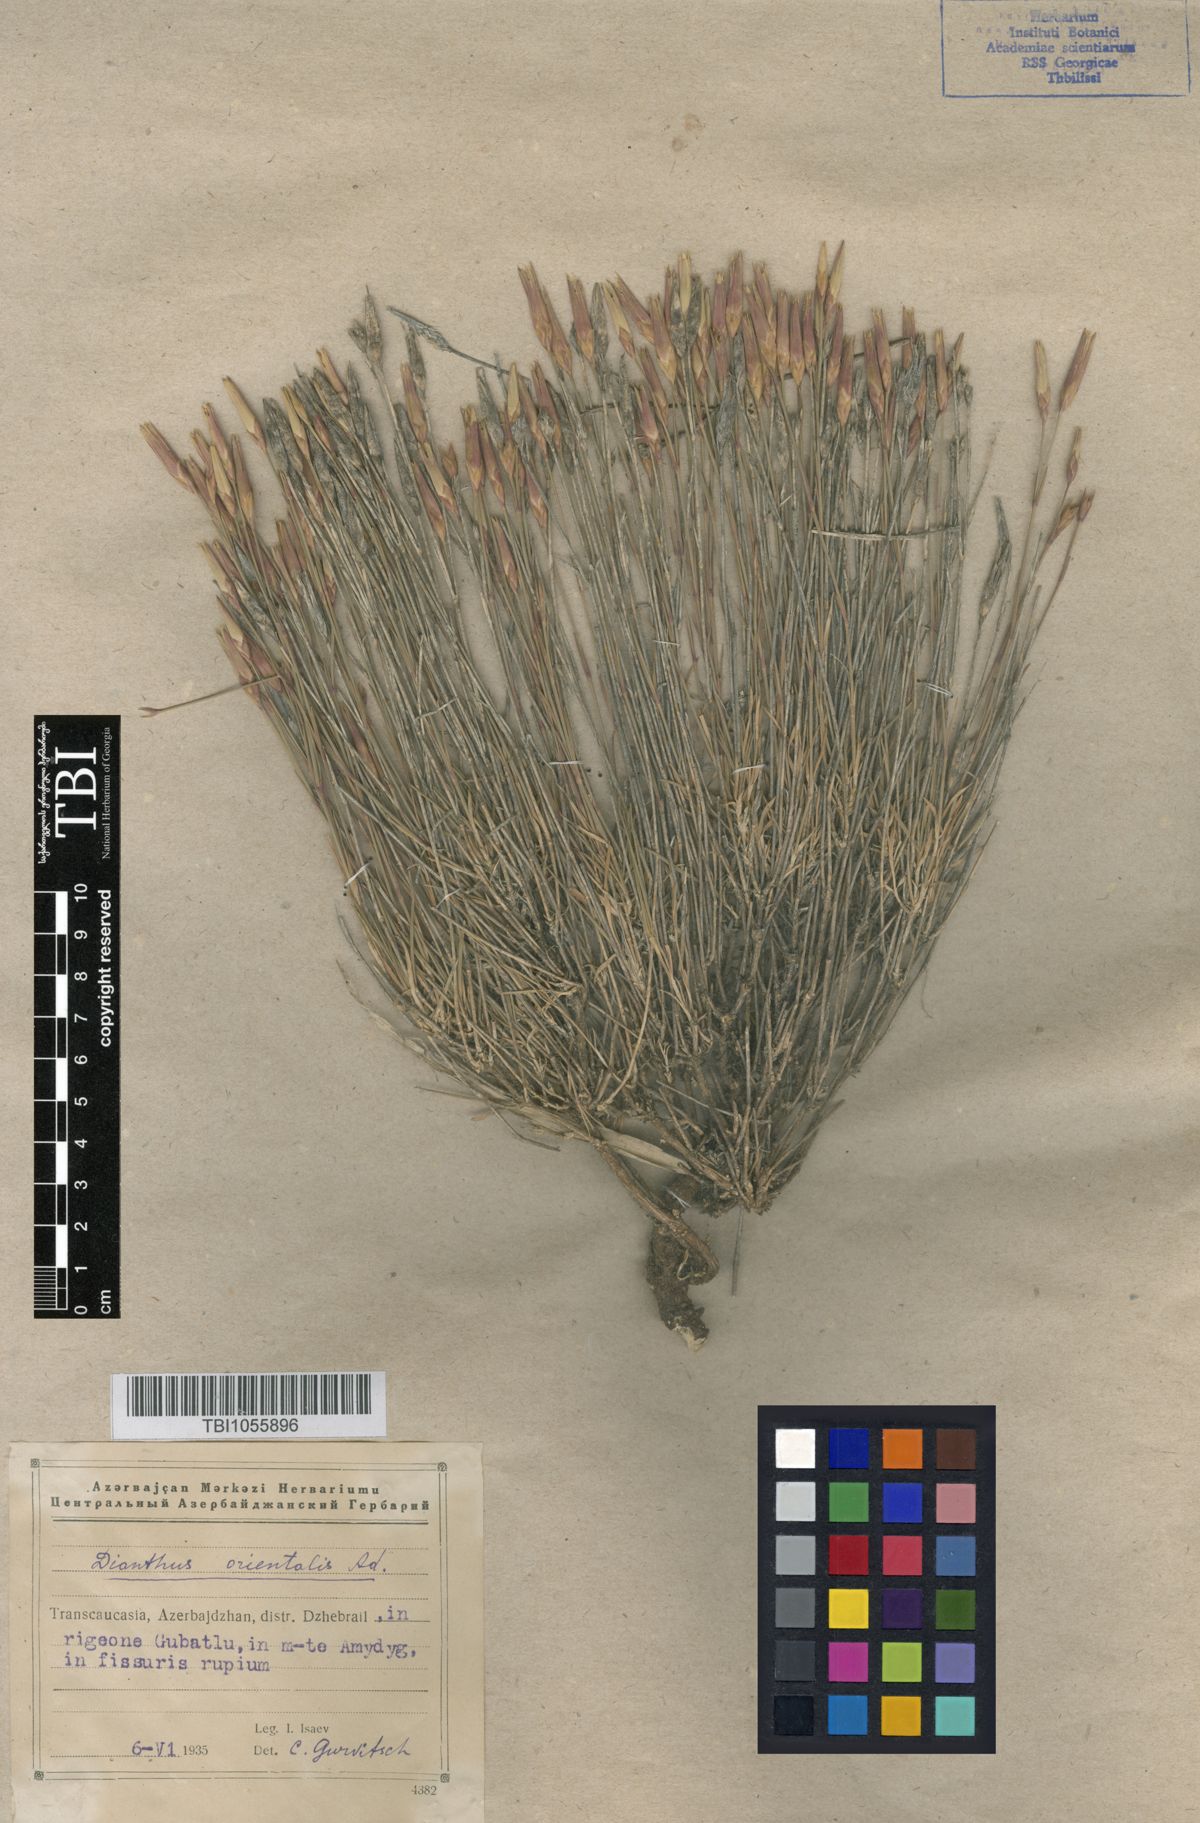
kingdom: Plantae
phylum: Tracheophyta
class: Magnoliopsida
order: Caryophyllales
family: Caryophyllaceae
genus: Dianthus
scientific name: Dianthus orientalis
